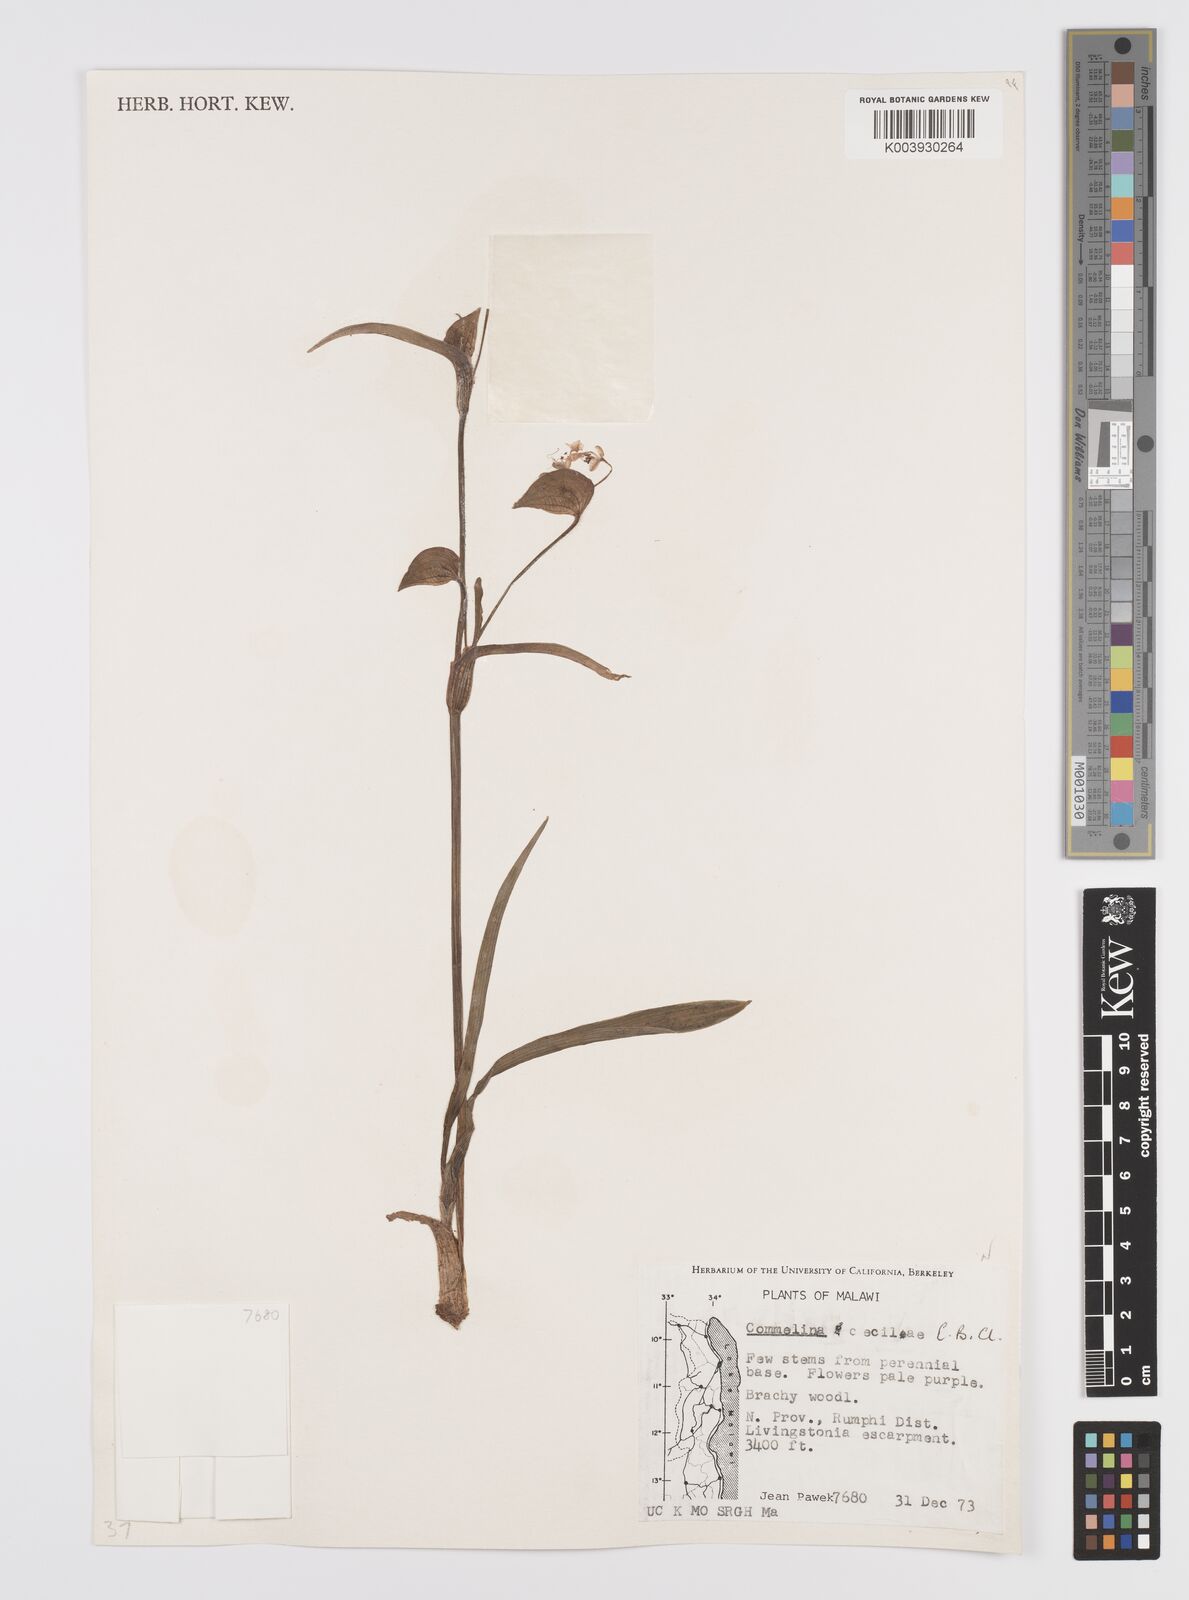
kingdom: Plantae
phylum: Tracheophyta
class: Liliopsida
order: Commelinales
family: Commelinaceae
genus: Commelina
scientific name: Commelina schweinfurthii
